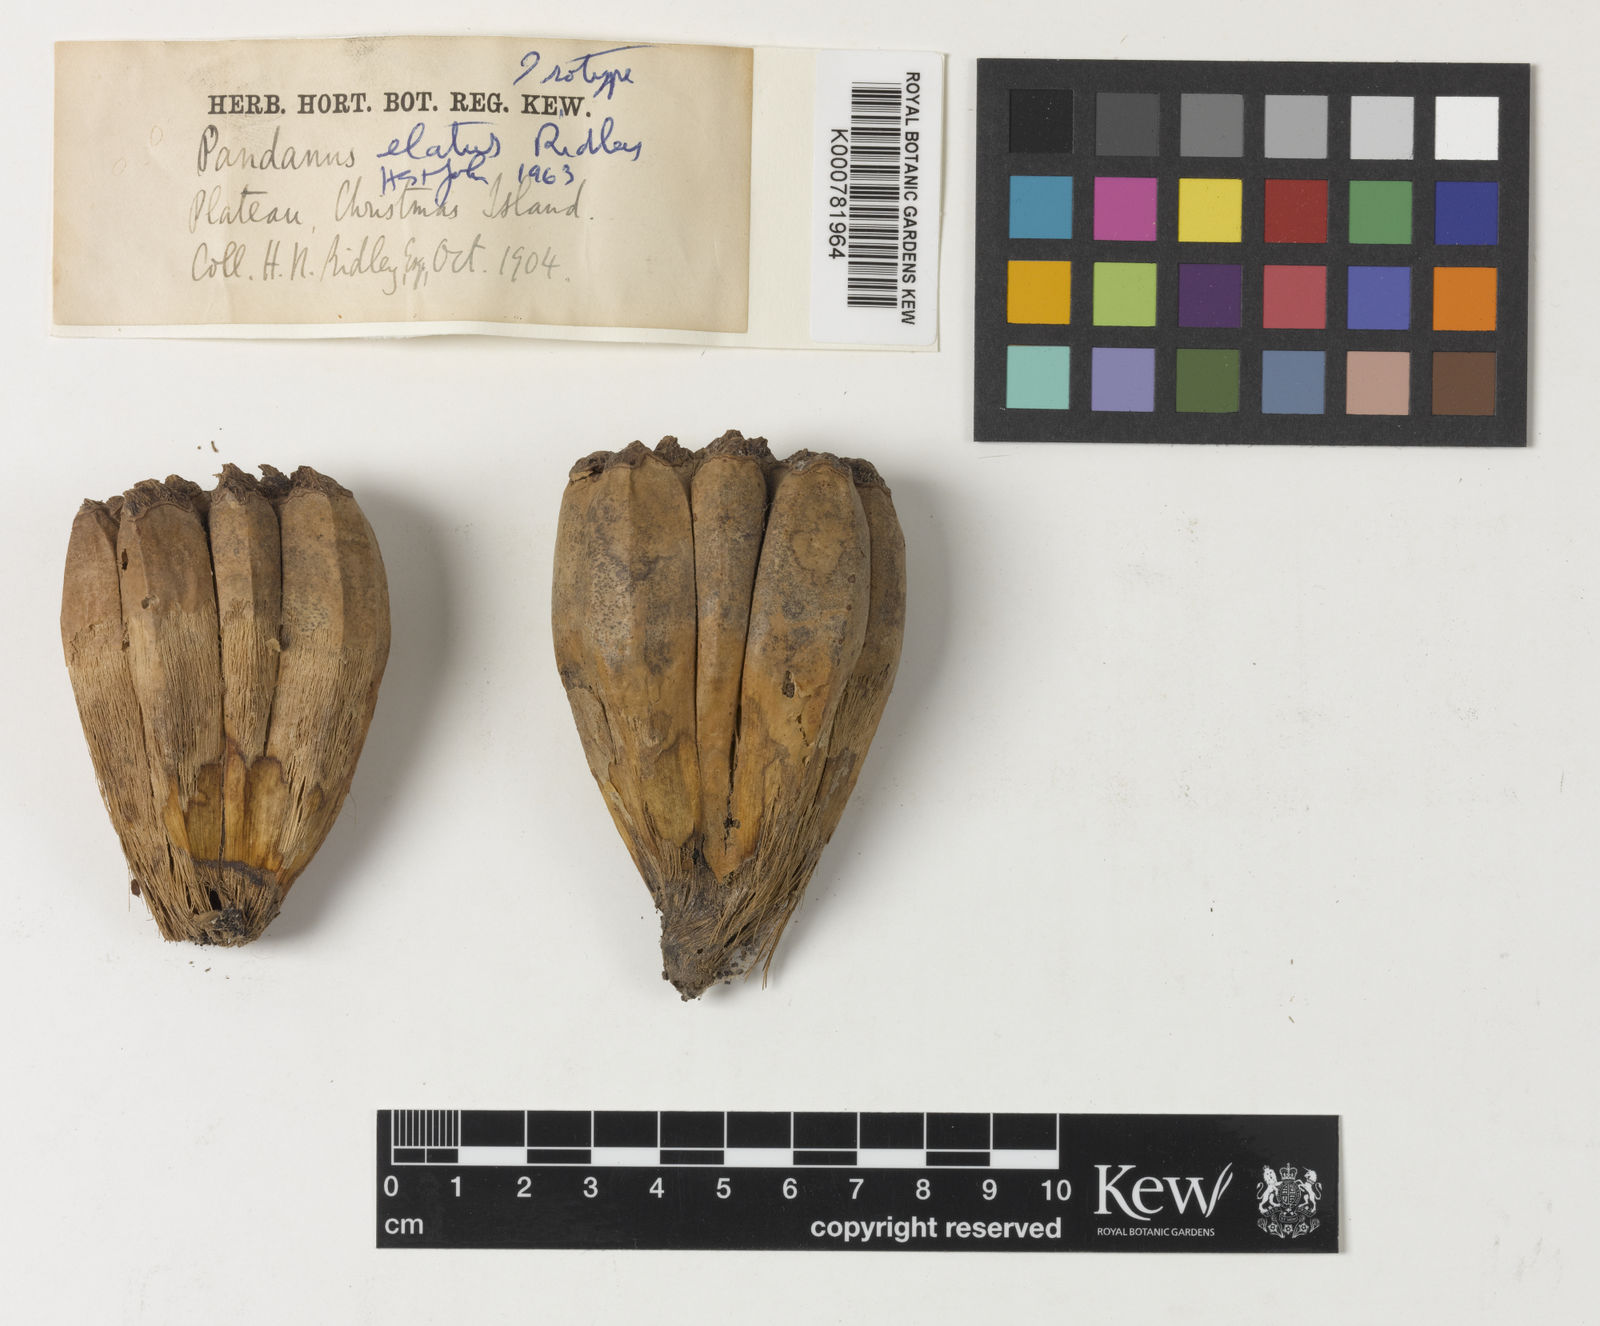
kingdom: Plantae
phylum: Tracheophyta
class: Liliopsida
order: Pandanales
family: Pandanaceae
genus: Pandanus
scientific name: Pandanus elatus
